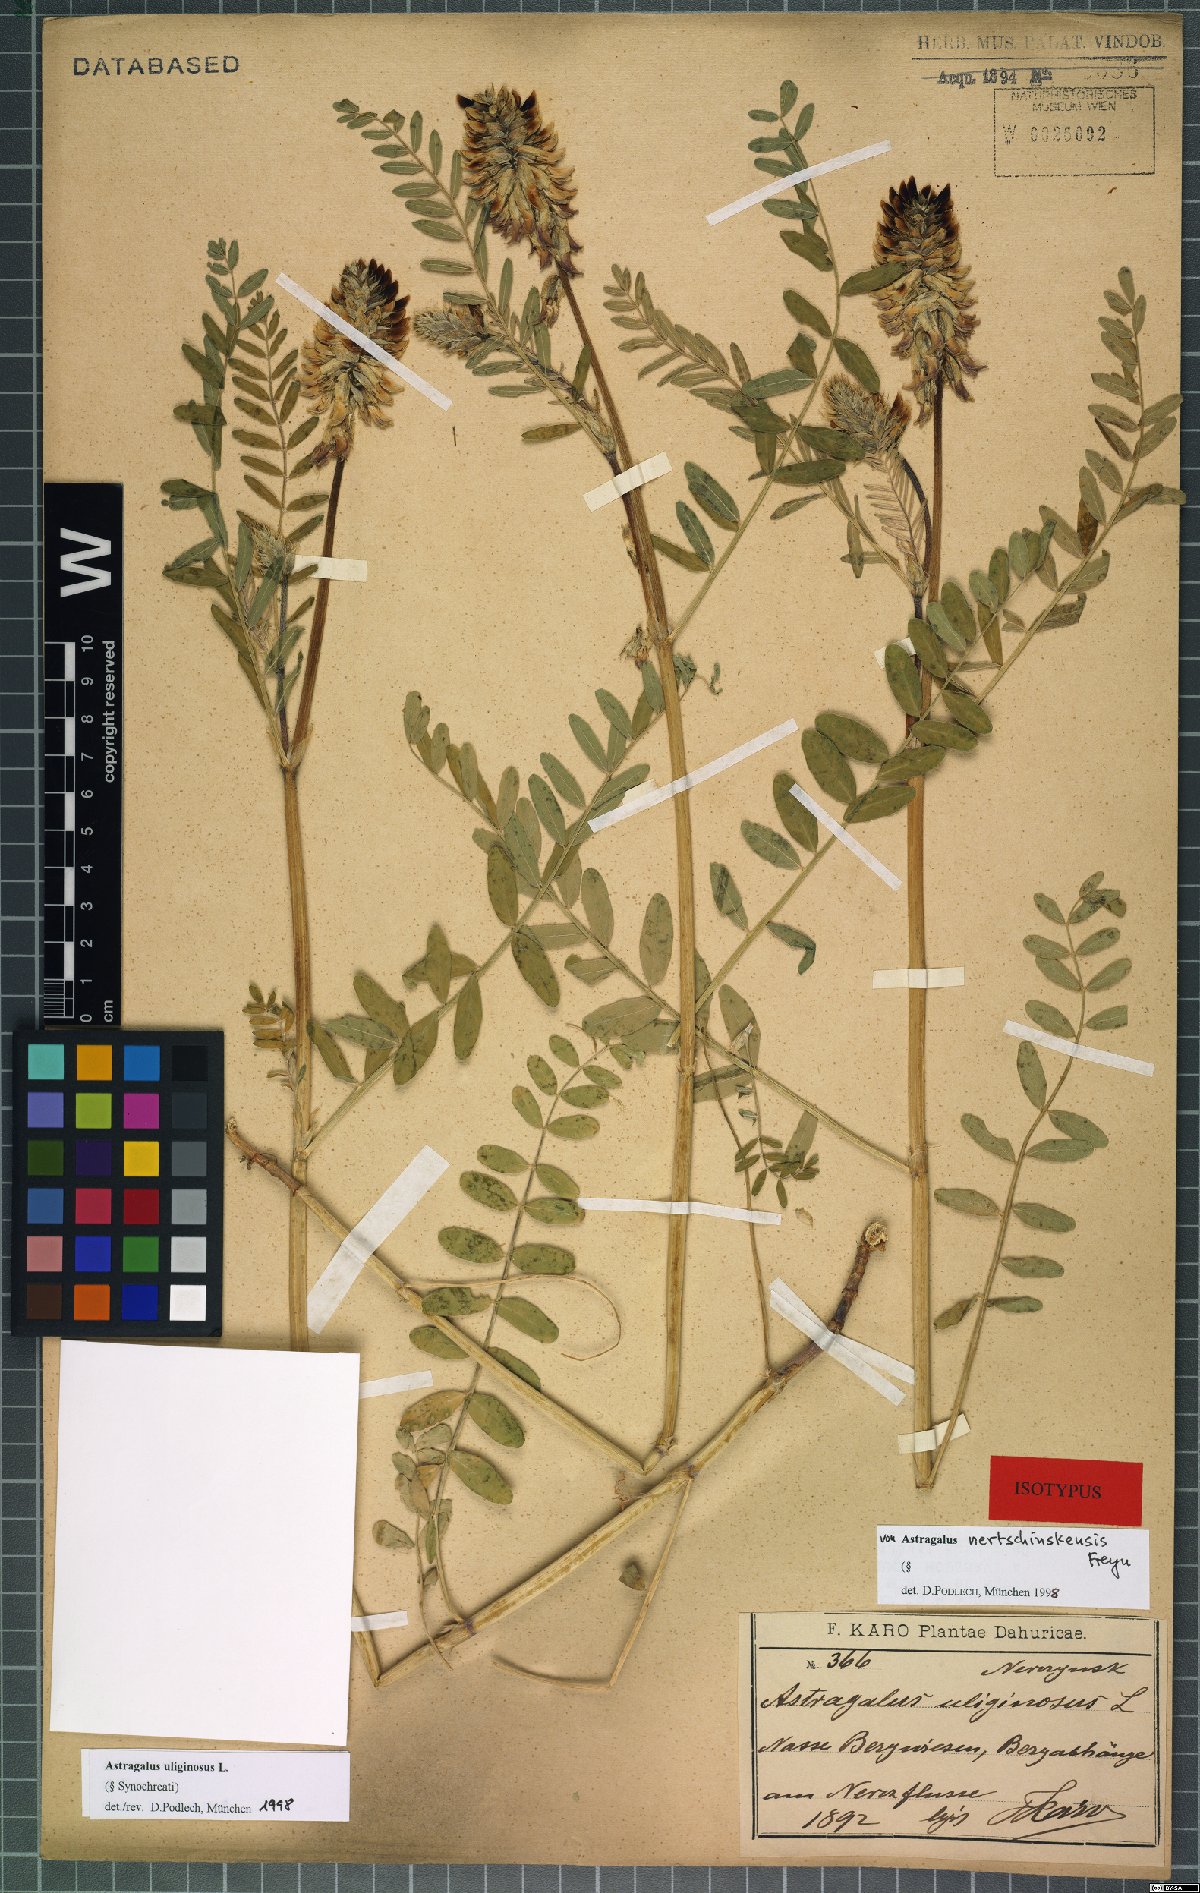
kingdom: Plantae
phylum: Tracheophyta
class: Magnoliopsida
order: Fabales
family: Fabaceae
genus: Astragalus
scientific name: Astragalus uliginosus
